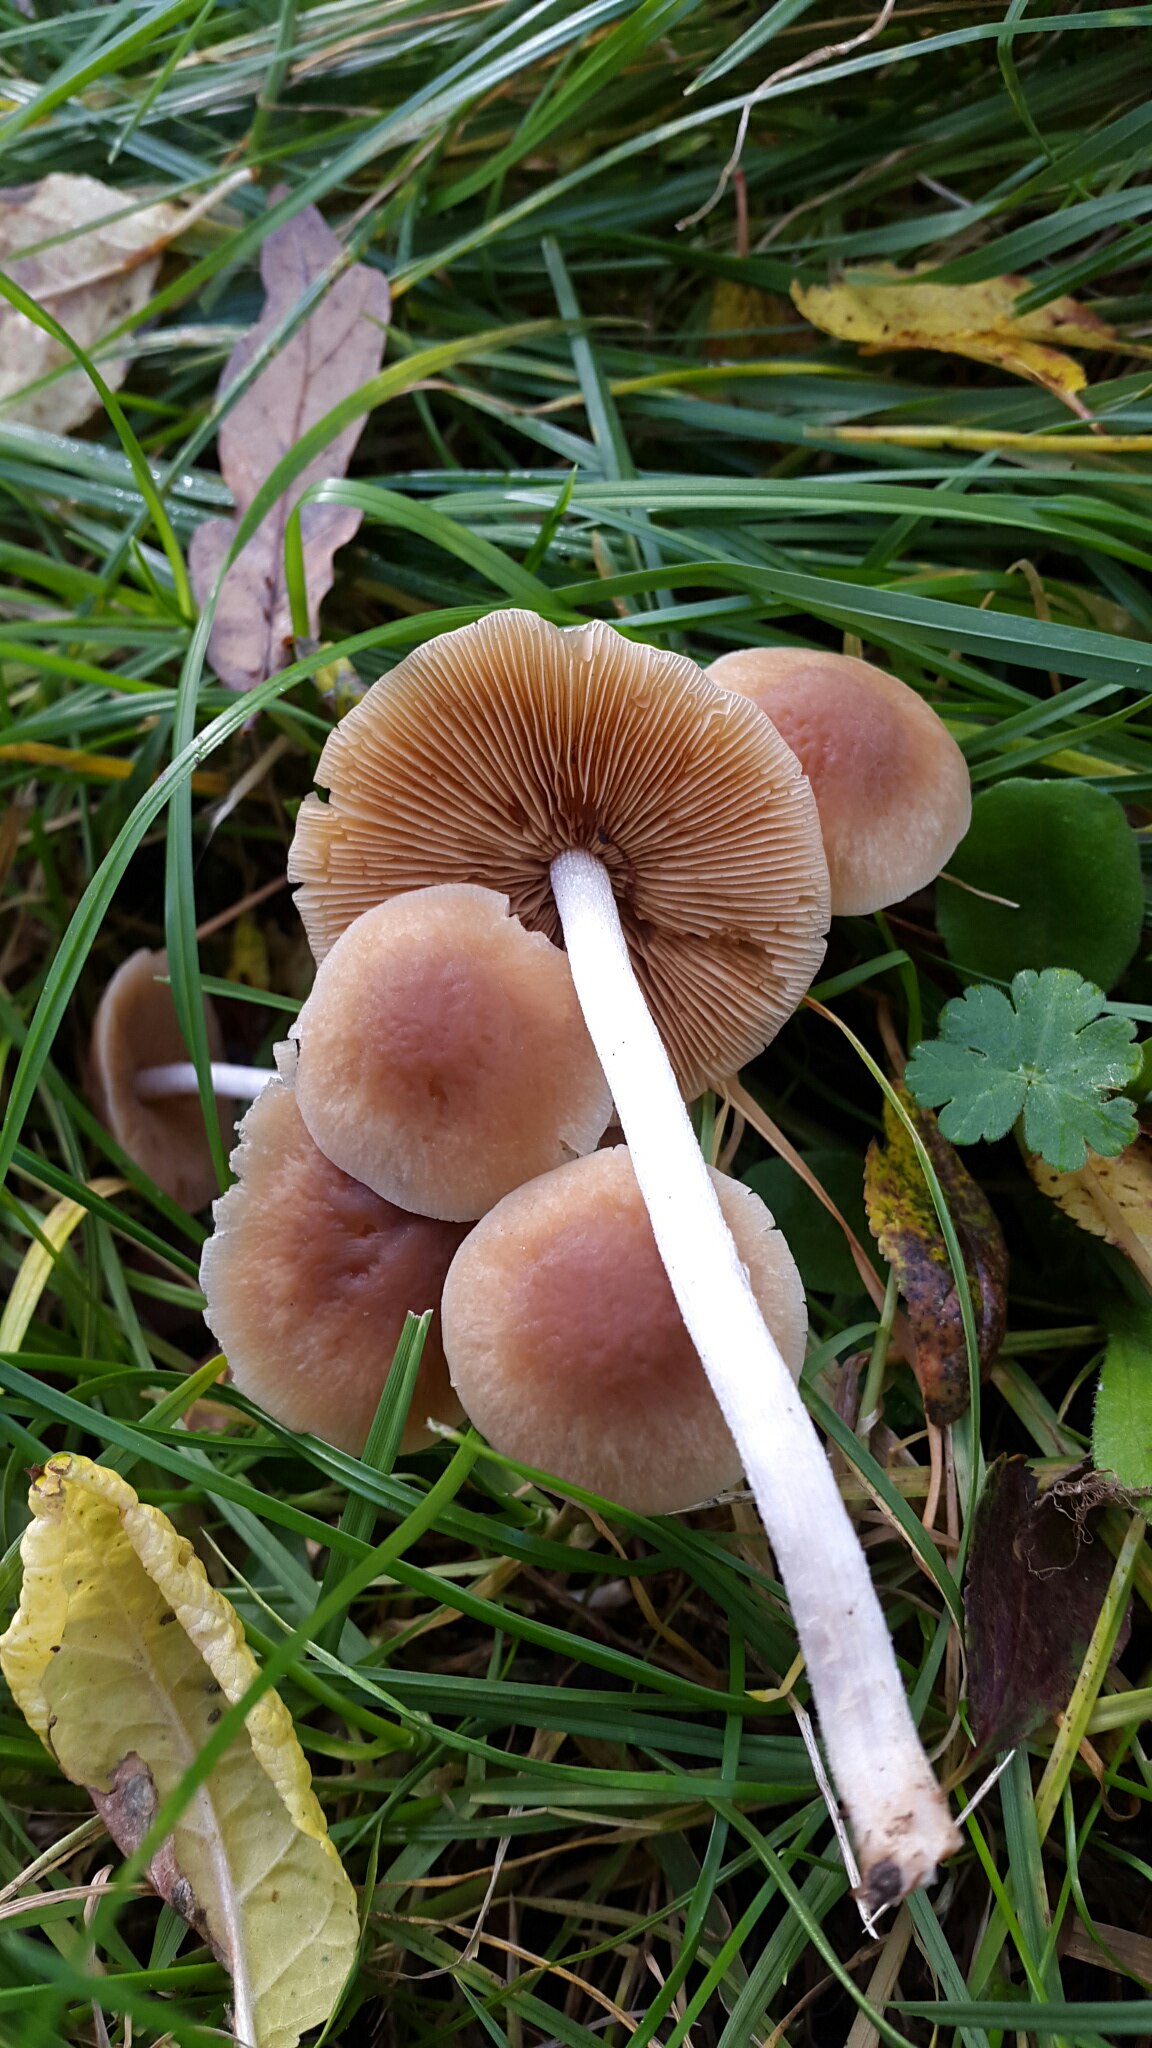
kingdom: Fungi
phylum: Basidiomycota
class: Agaricomycetes
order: Agaricales
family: Bolbitiaceae
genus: Pholiotina
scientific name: Pholiotina
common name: dansehat
